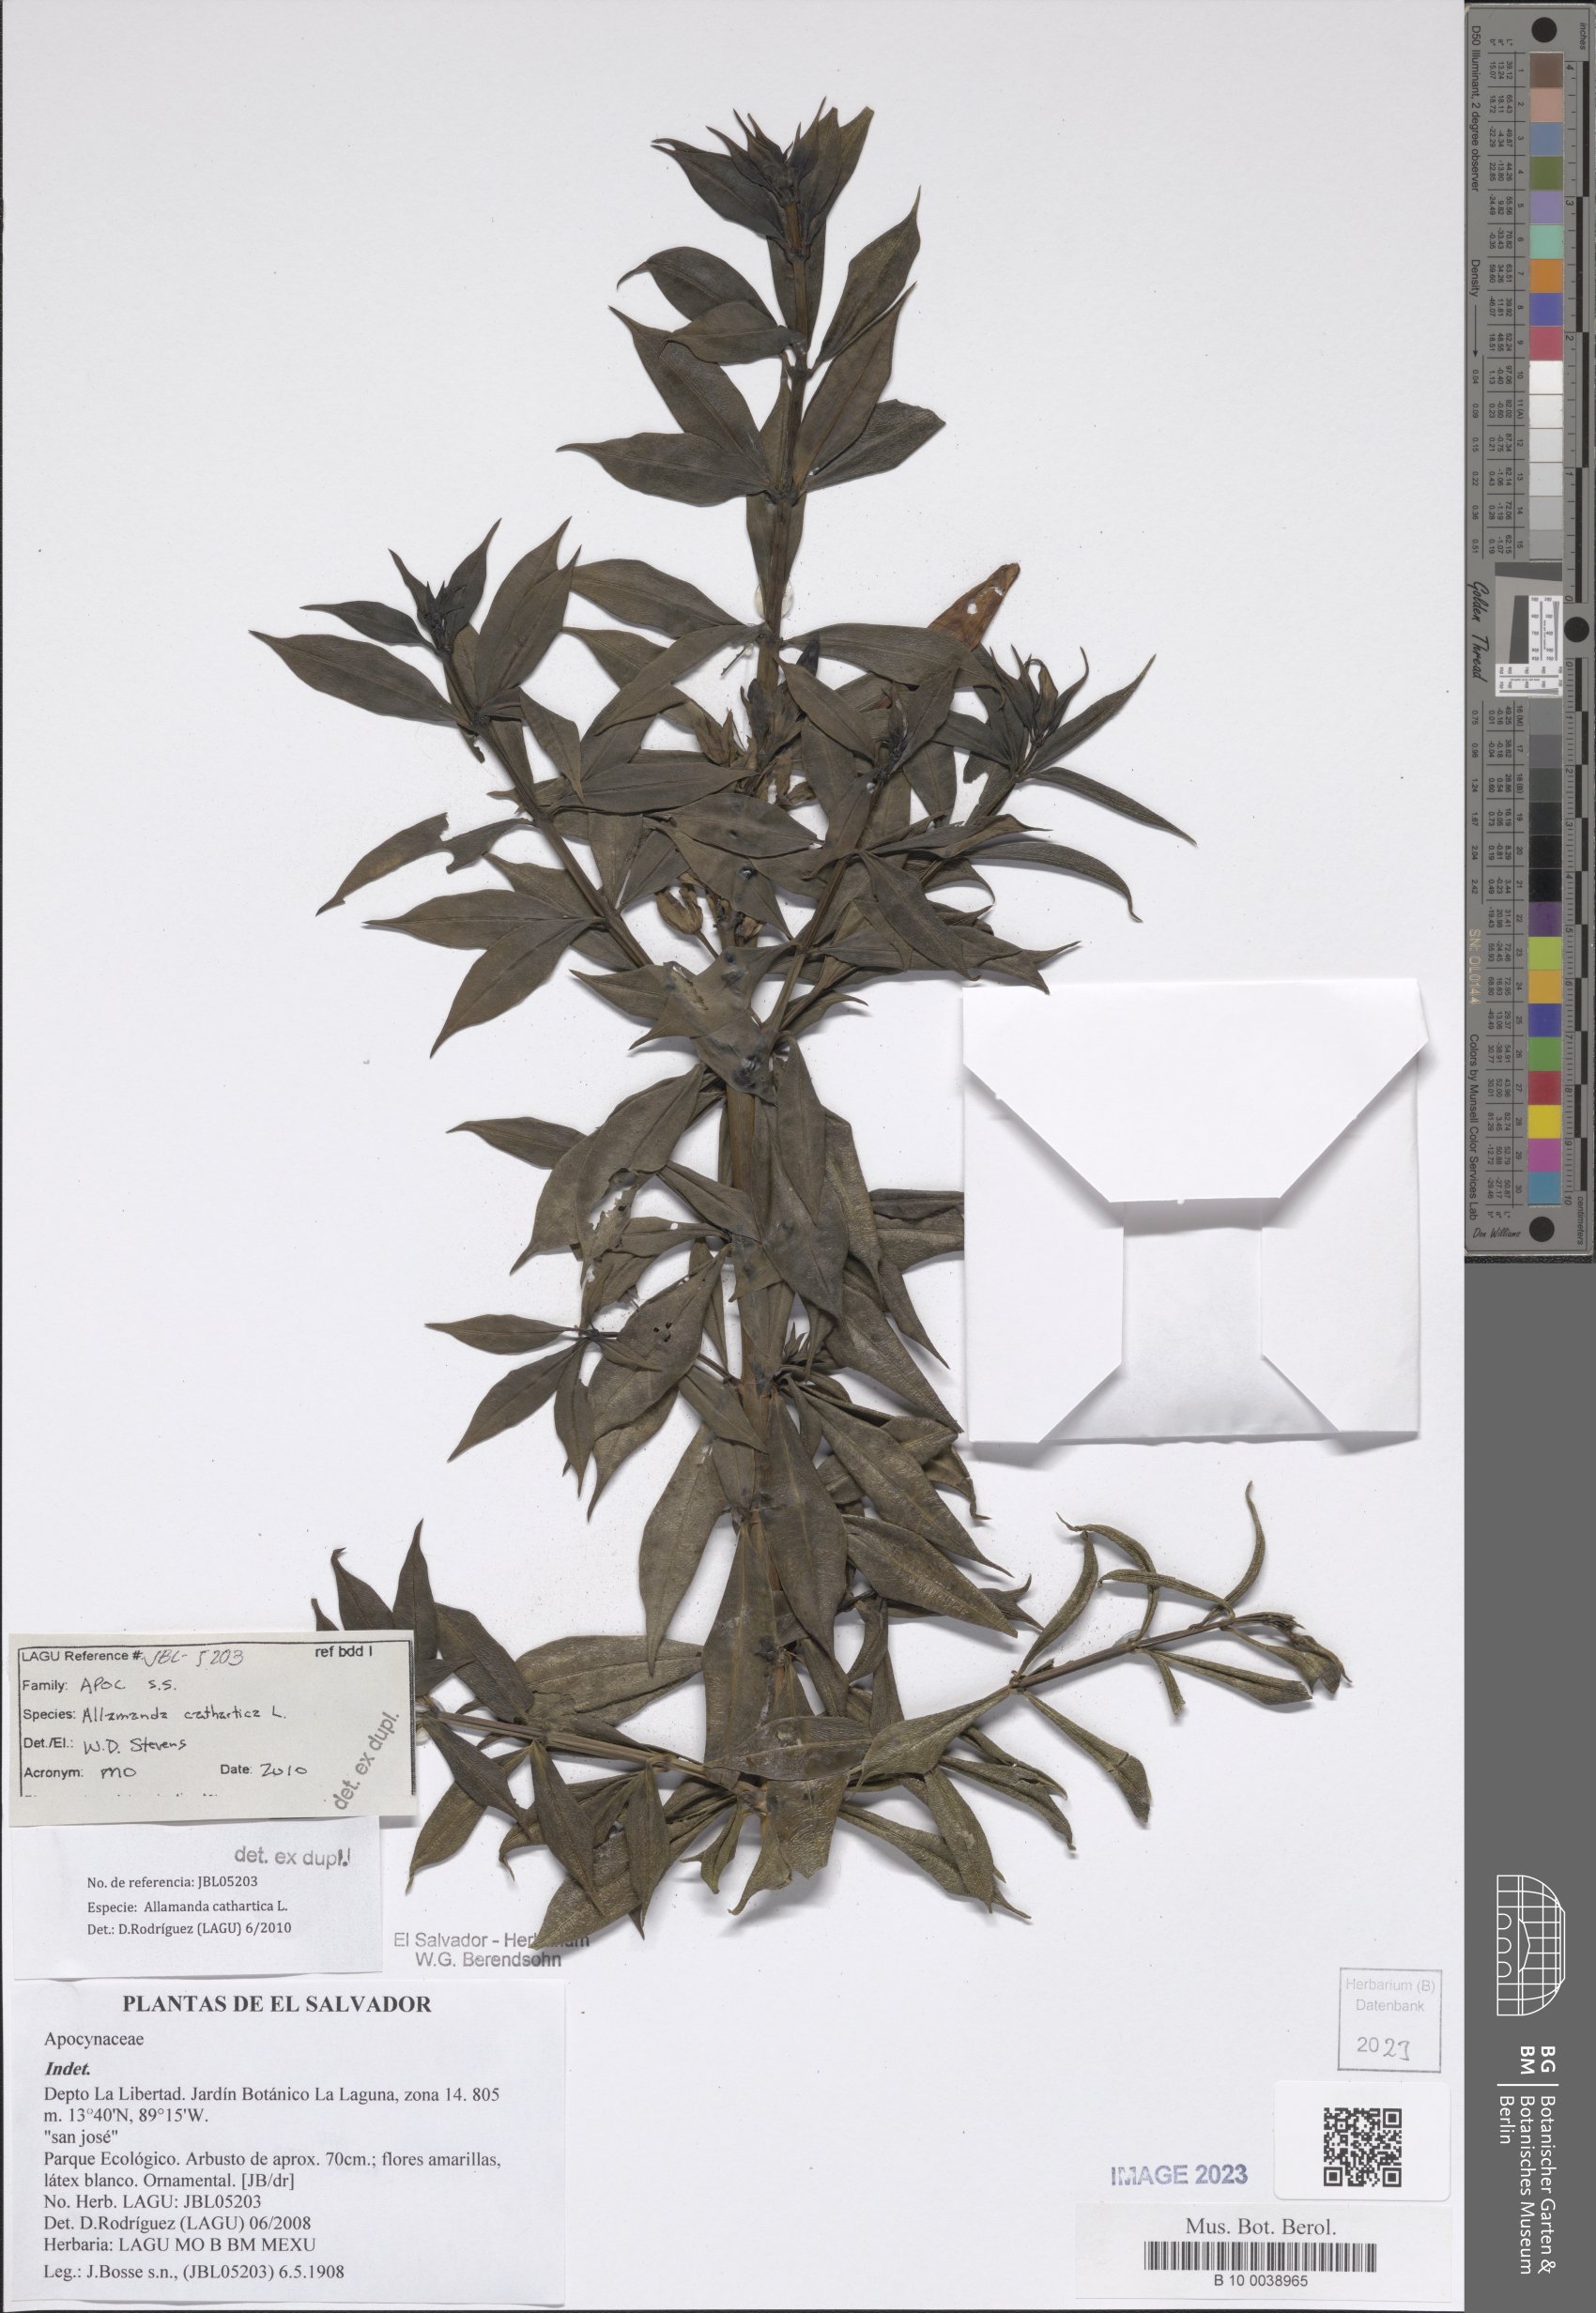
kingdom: Plantae
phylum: Tracheophyta
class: Magnoliopsida
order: Gentianales
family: Apocynaceae
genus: Allamanda
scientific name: Allamanda cathartica
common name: Golden trumpet
